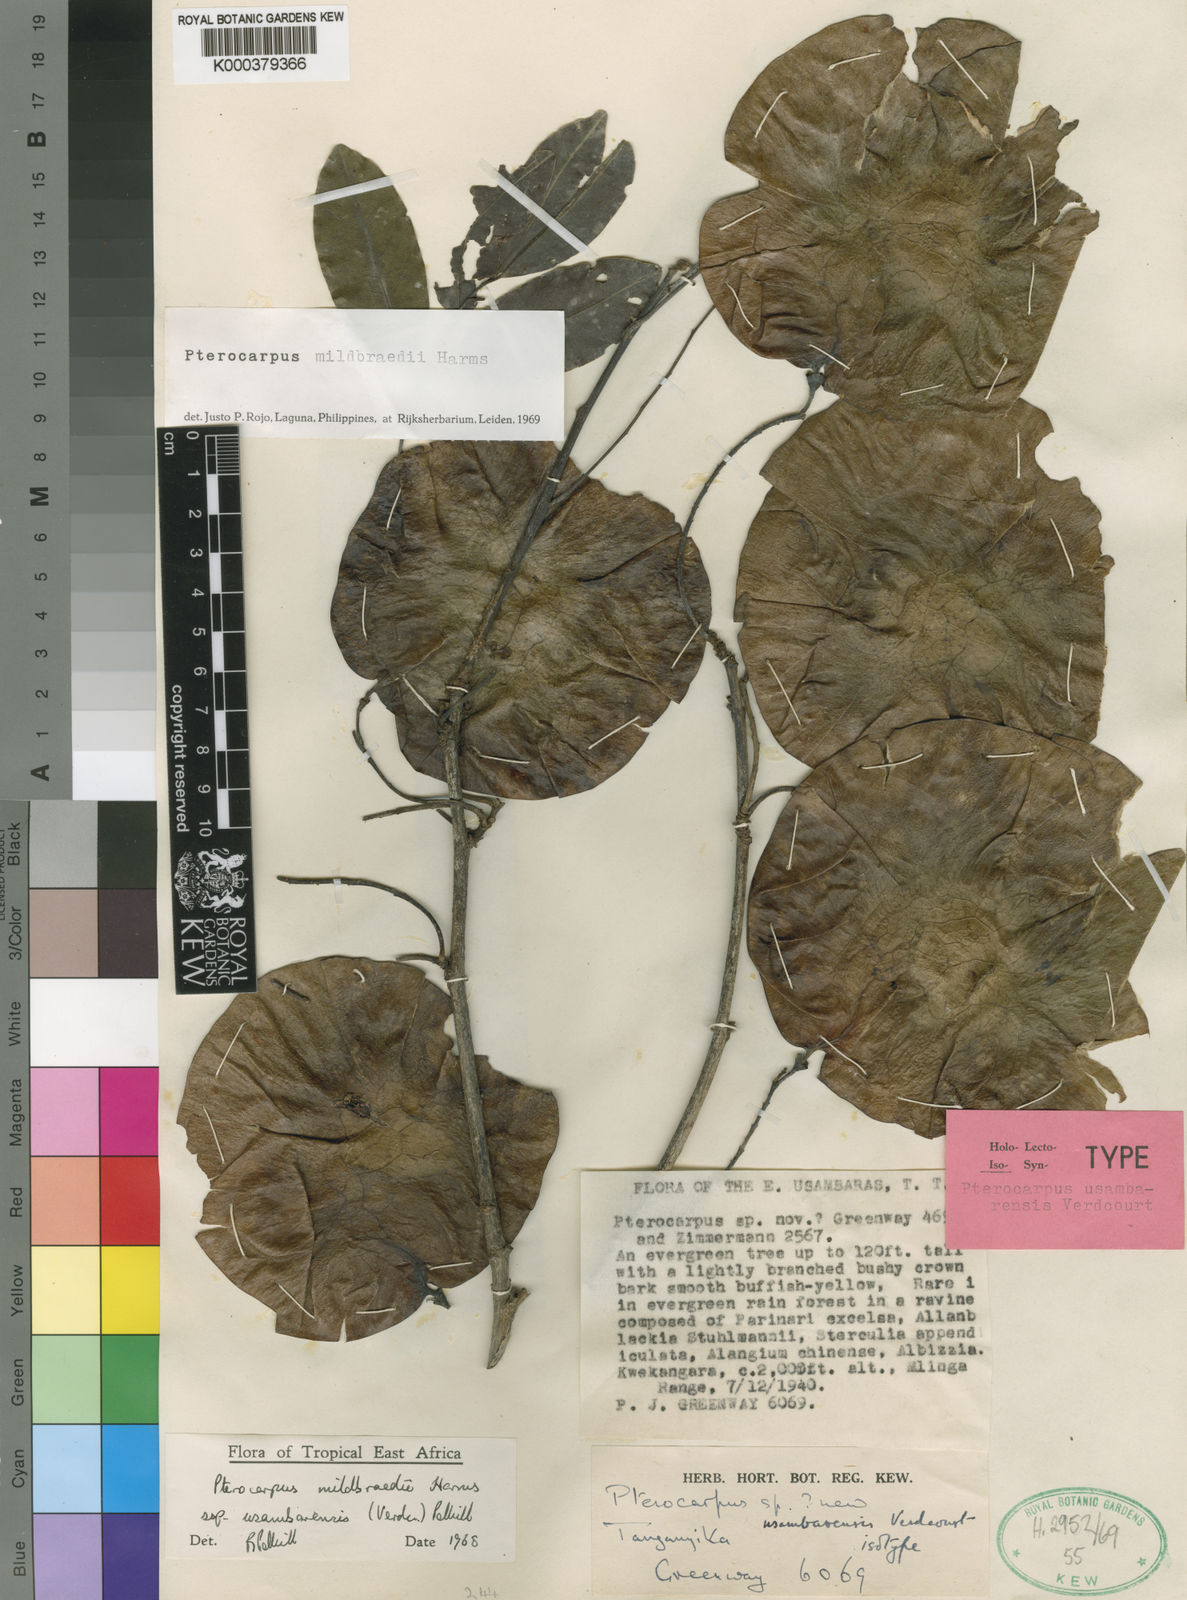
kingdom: Plantae
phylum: Tracheophyta
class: Magnoliopsida
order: Fabales
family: Fabaceae
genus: Pterocarpus
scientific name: Pterocarpus mildbraedii
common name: White padouk
